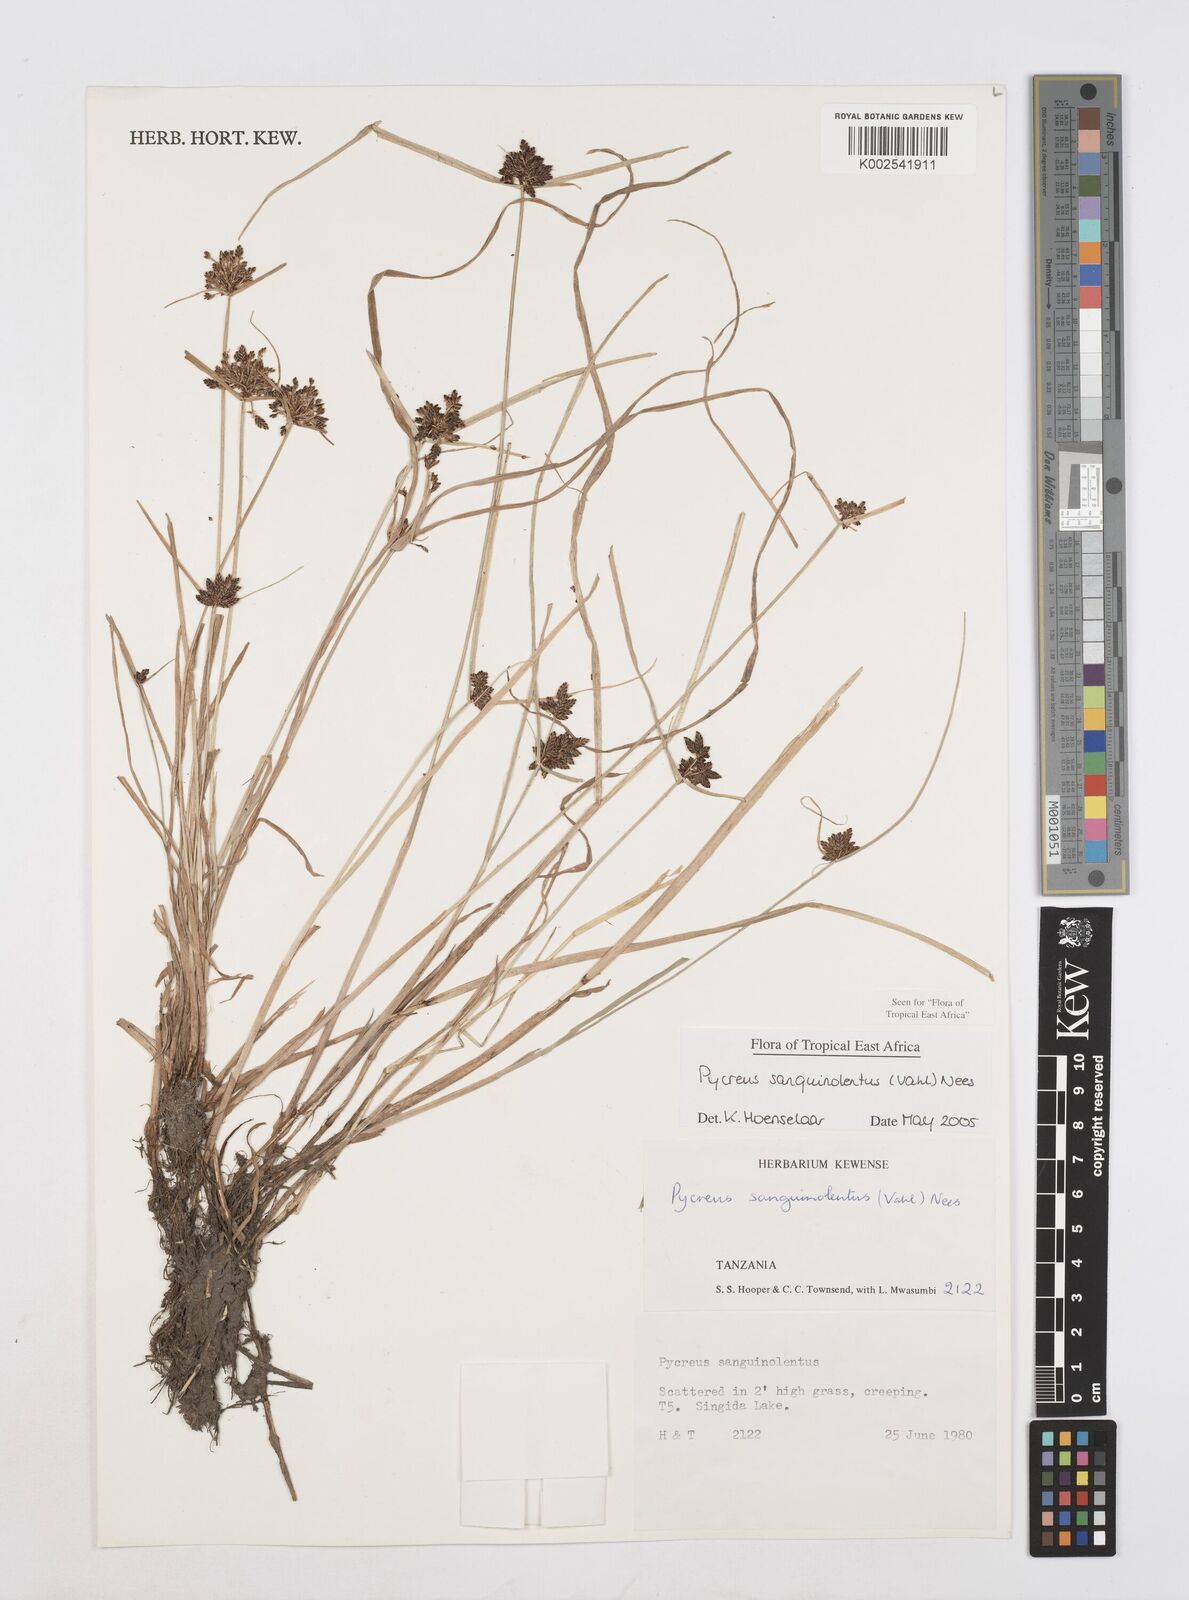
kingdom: Plantae
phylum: Tracheophyta
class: Liliopsida
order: Poales
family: Cyperaceae
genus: Cyperus
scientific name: Cyperus sanguinolentus
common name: Purpleglume flatsedge
